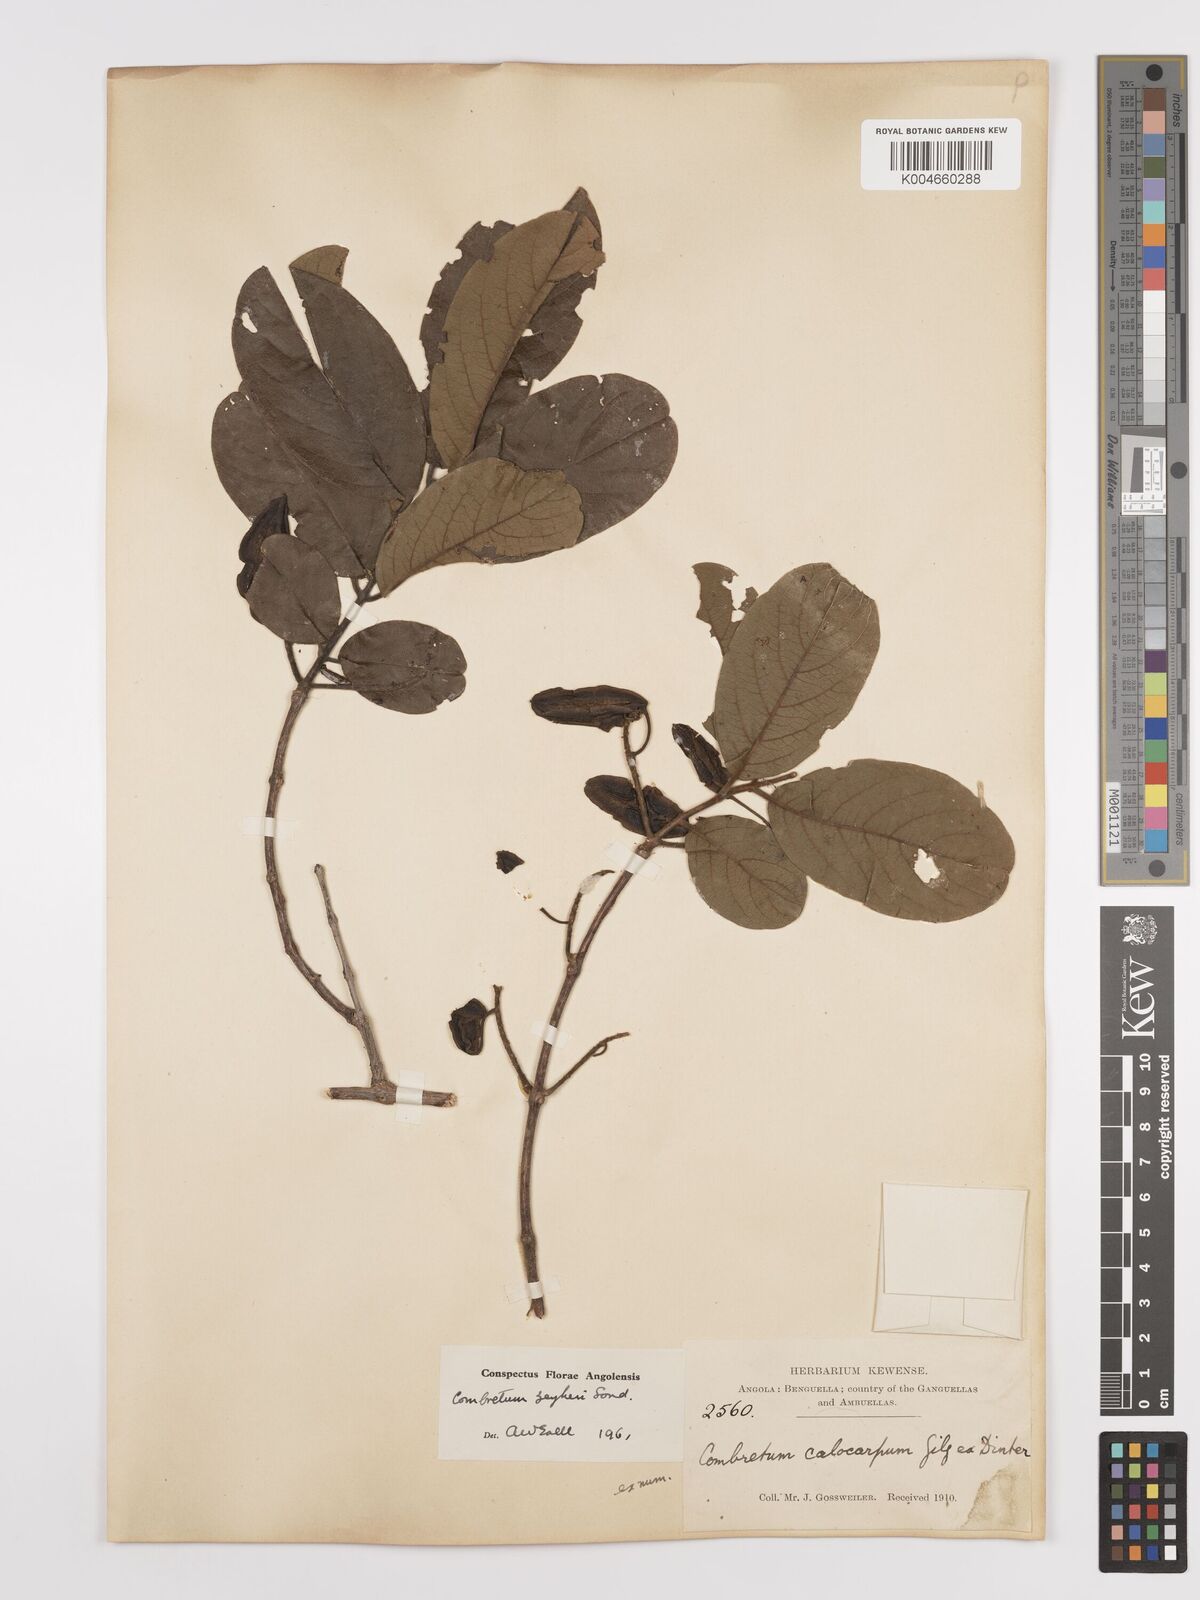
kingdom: Plantae
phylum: Tracheophyta
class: Magnoliopsida
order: Myrtales
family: Combretaceae
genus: Combretum
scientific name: Combretum zeyheri
